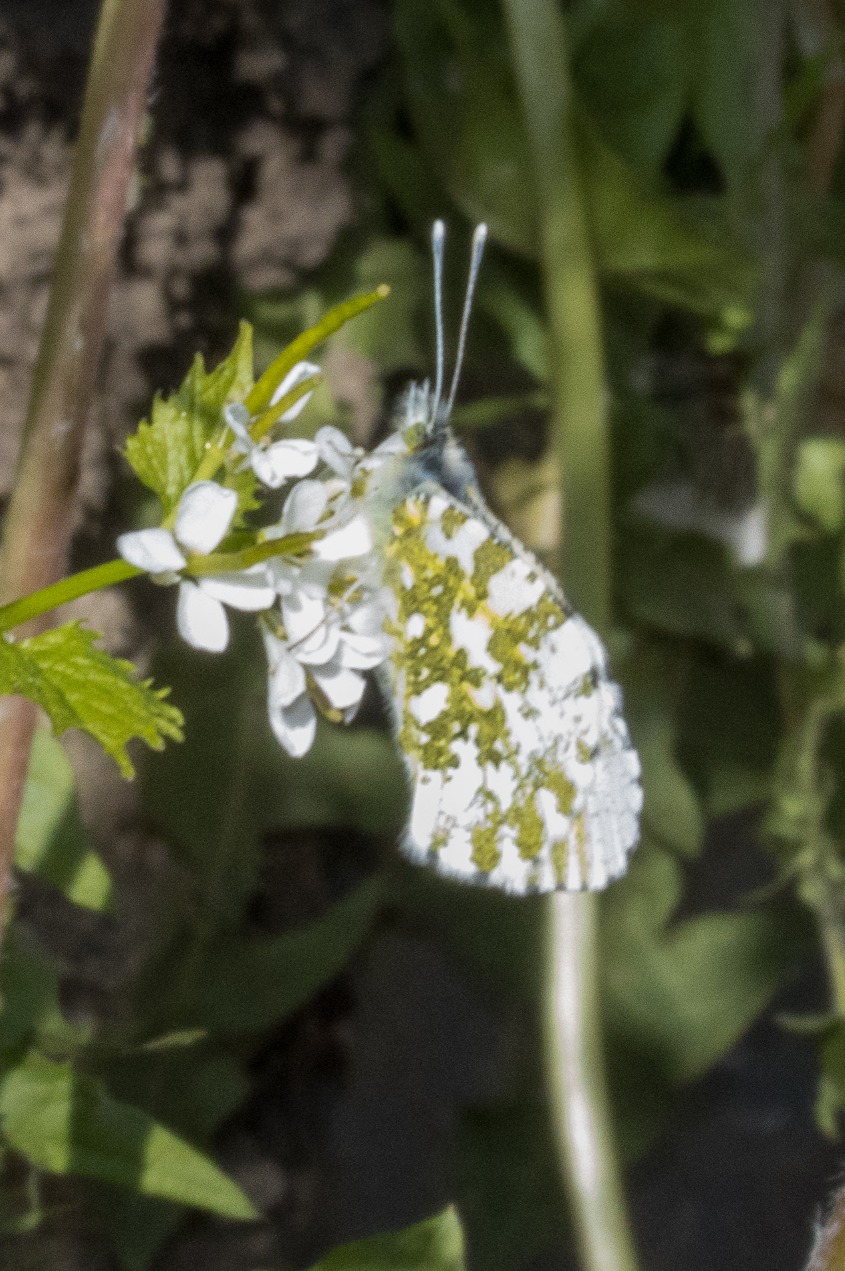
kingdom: Animalia
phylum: Arthropoda
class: Insecta
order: Lepidoptera
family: Pieridae
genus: Anthocharis
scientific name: Anthocharis cardamines
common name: Aurora
